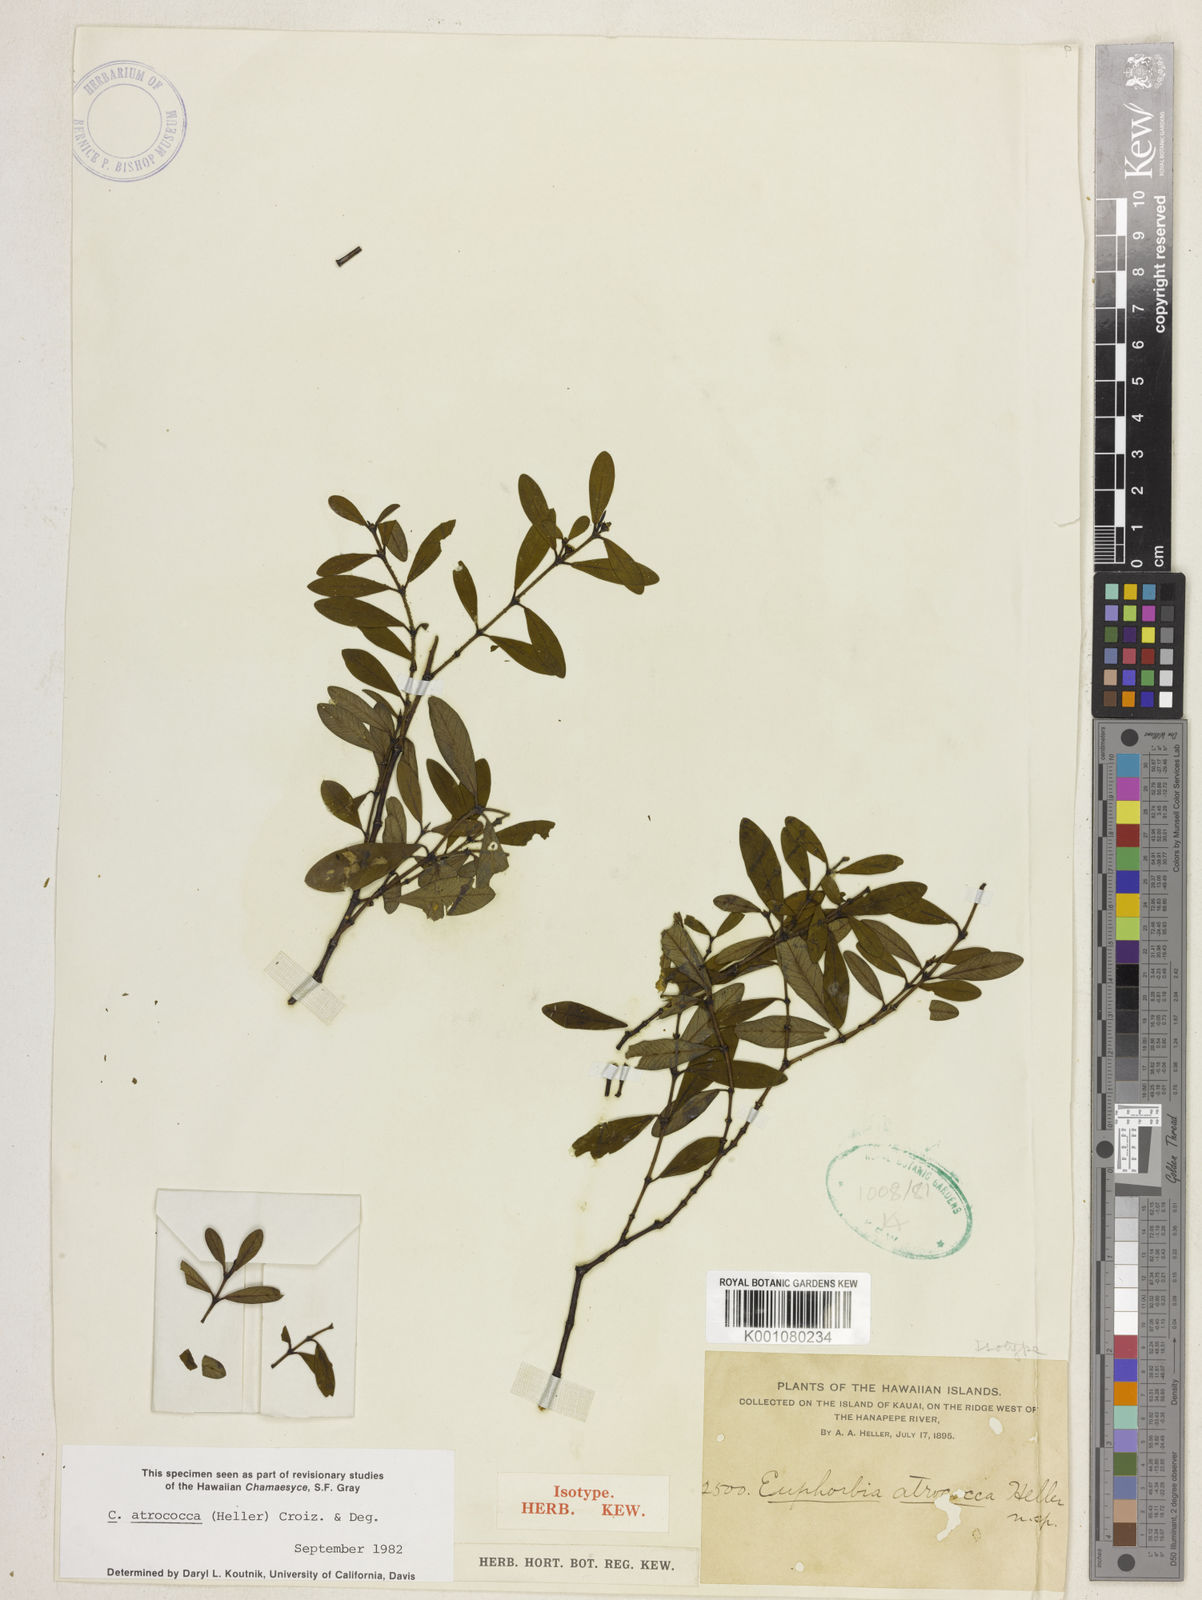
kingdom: Plantae
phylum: Tracheophyta
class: Magnoliopsida
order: Malpighiales
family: Euphorbiaceae
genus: Euphorbia
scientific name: Euphorbia atrococca
